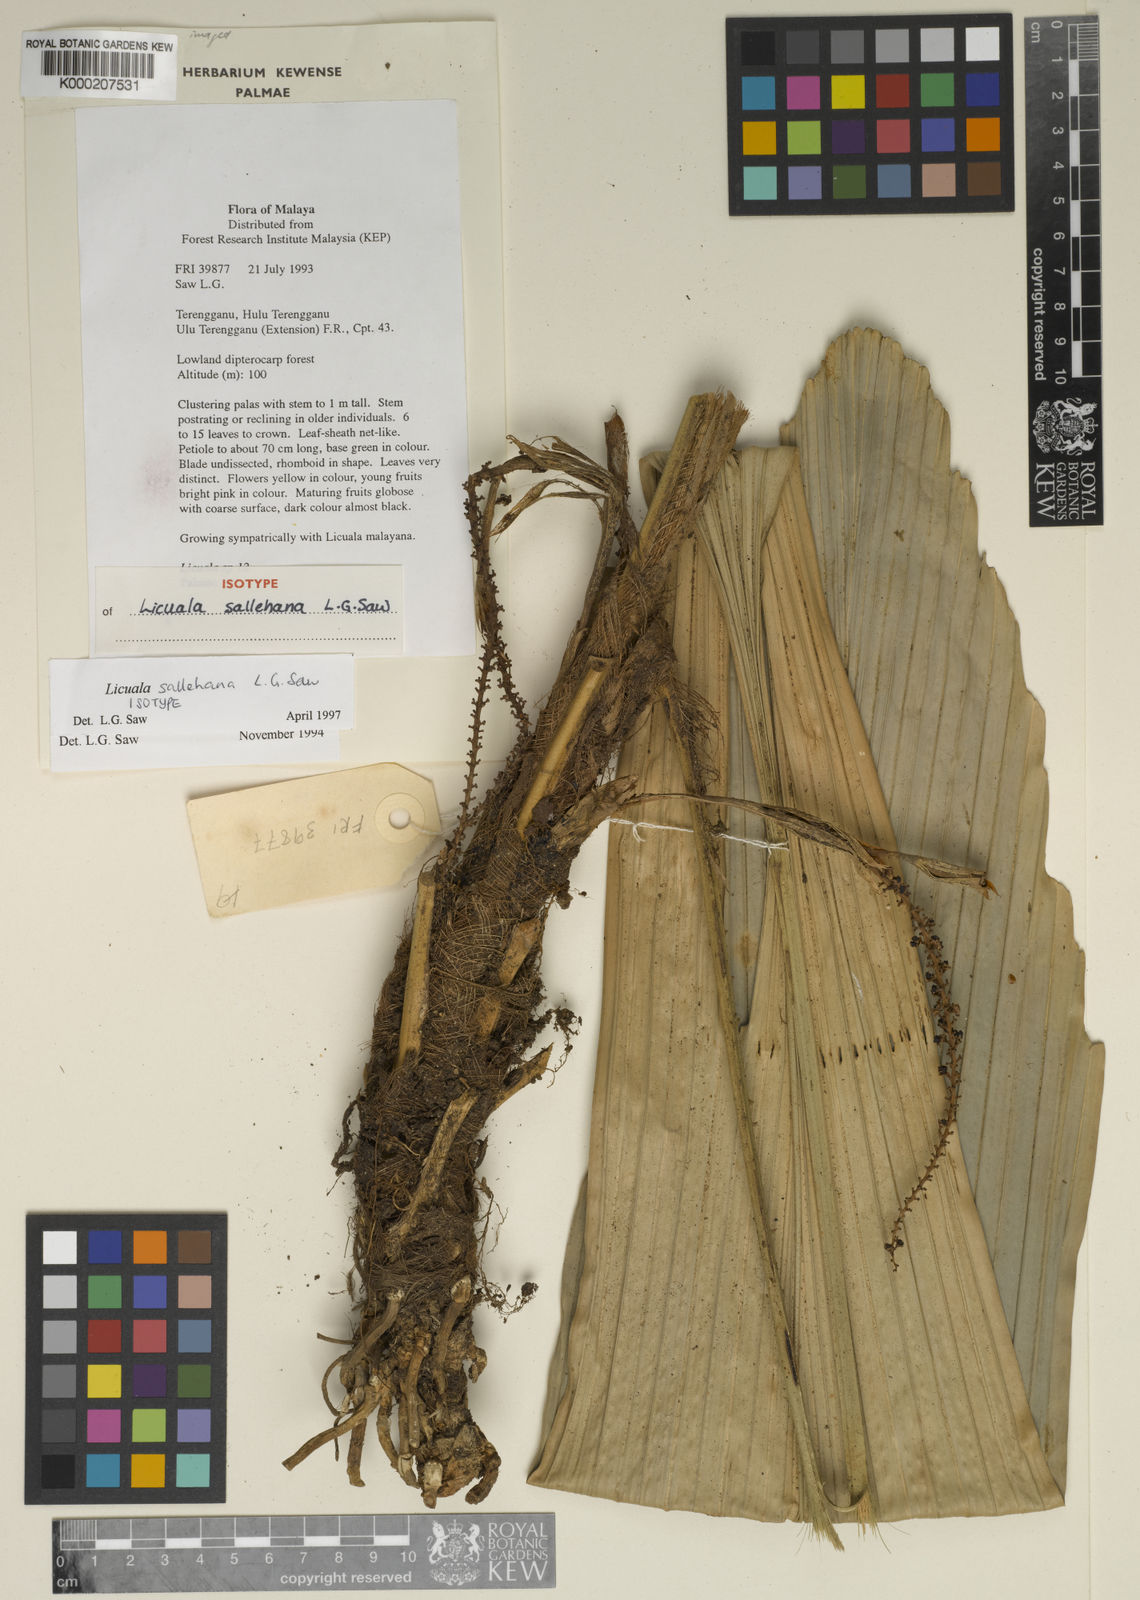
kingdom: Plantae
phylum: Tracheophyta
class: Liliopsida
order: Arecales
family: Arecaceae
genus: Licuala
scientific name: Licuala sallehana
